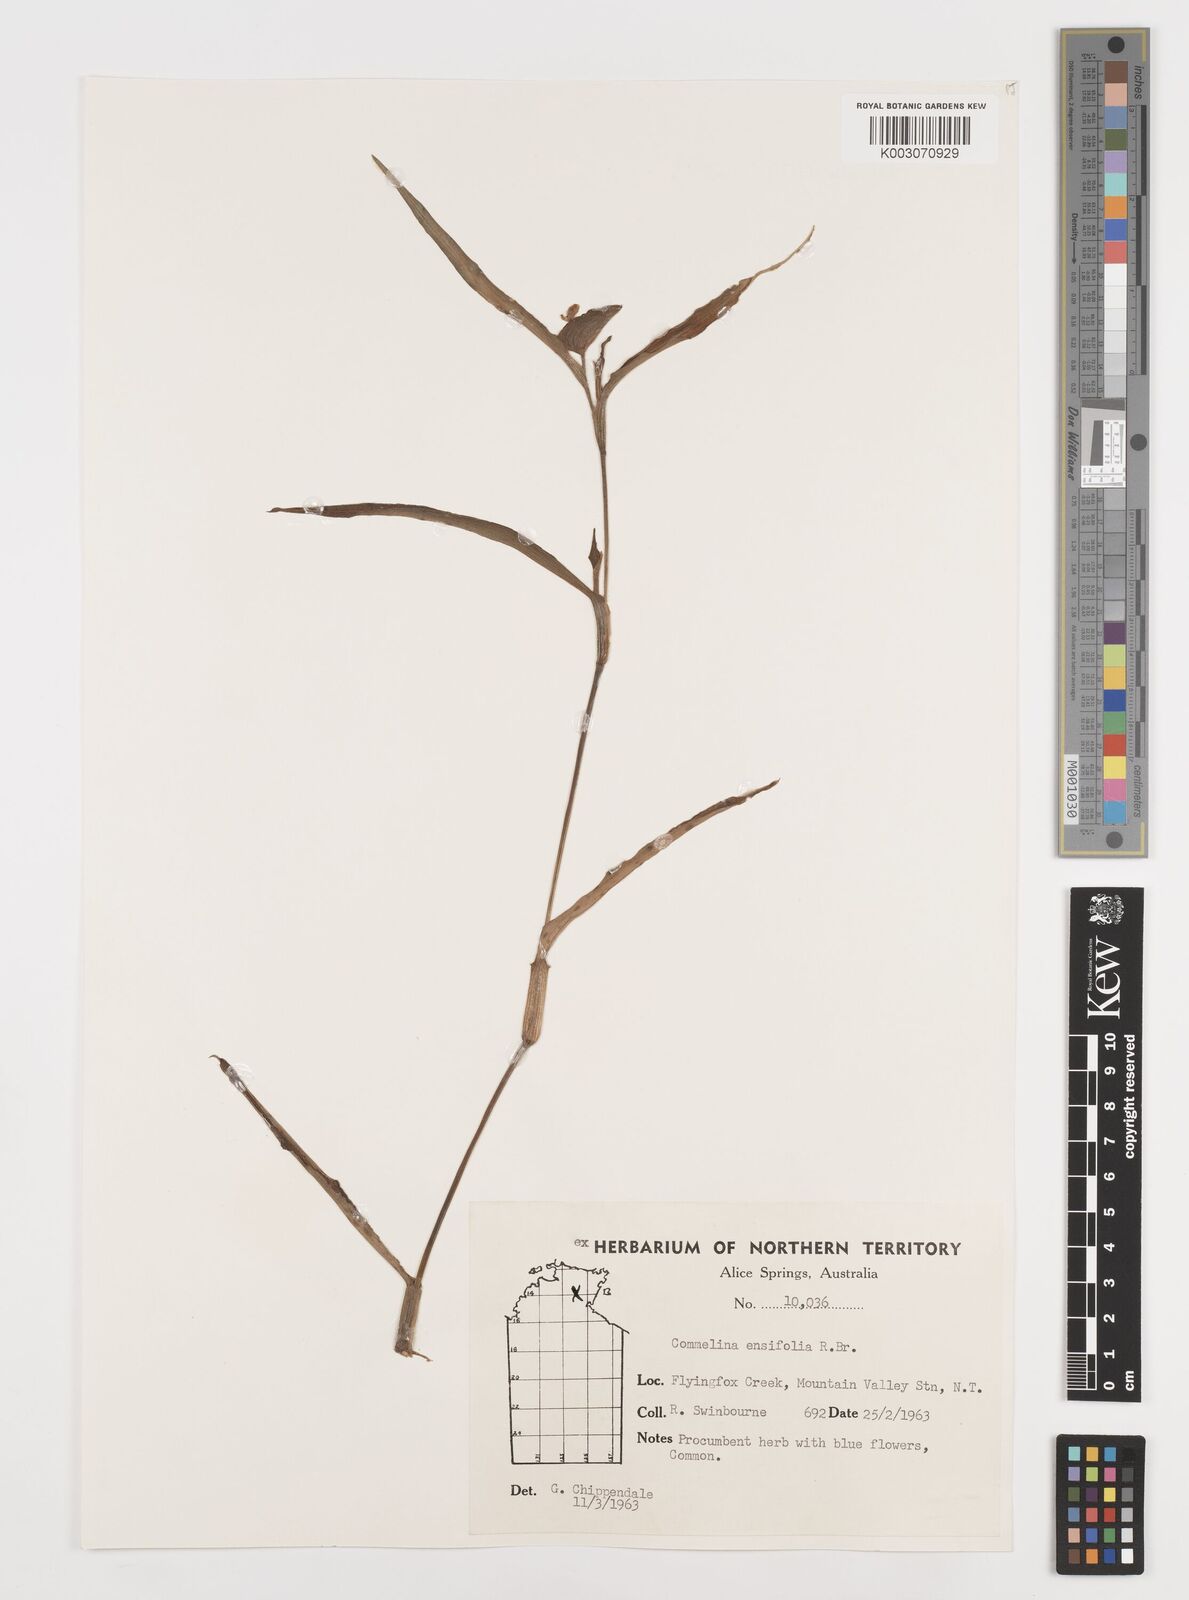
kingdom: Plantae
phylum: Tracheophyta
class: Liliopsida
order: Commelinales
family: Commelinaceae
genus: Commelina
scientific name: Commelina ensifolia
